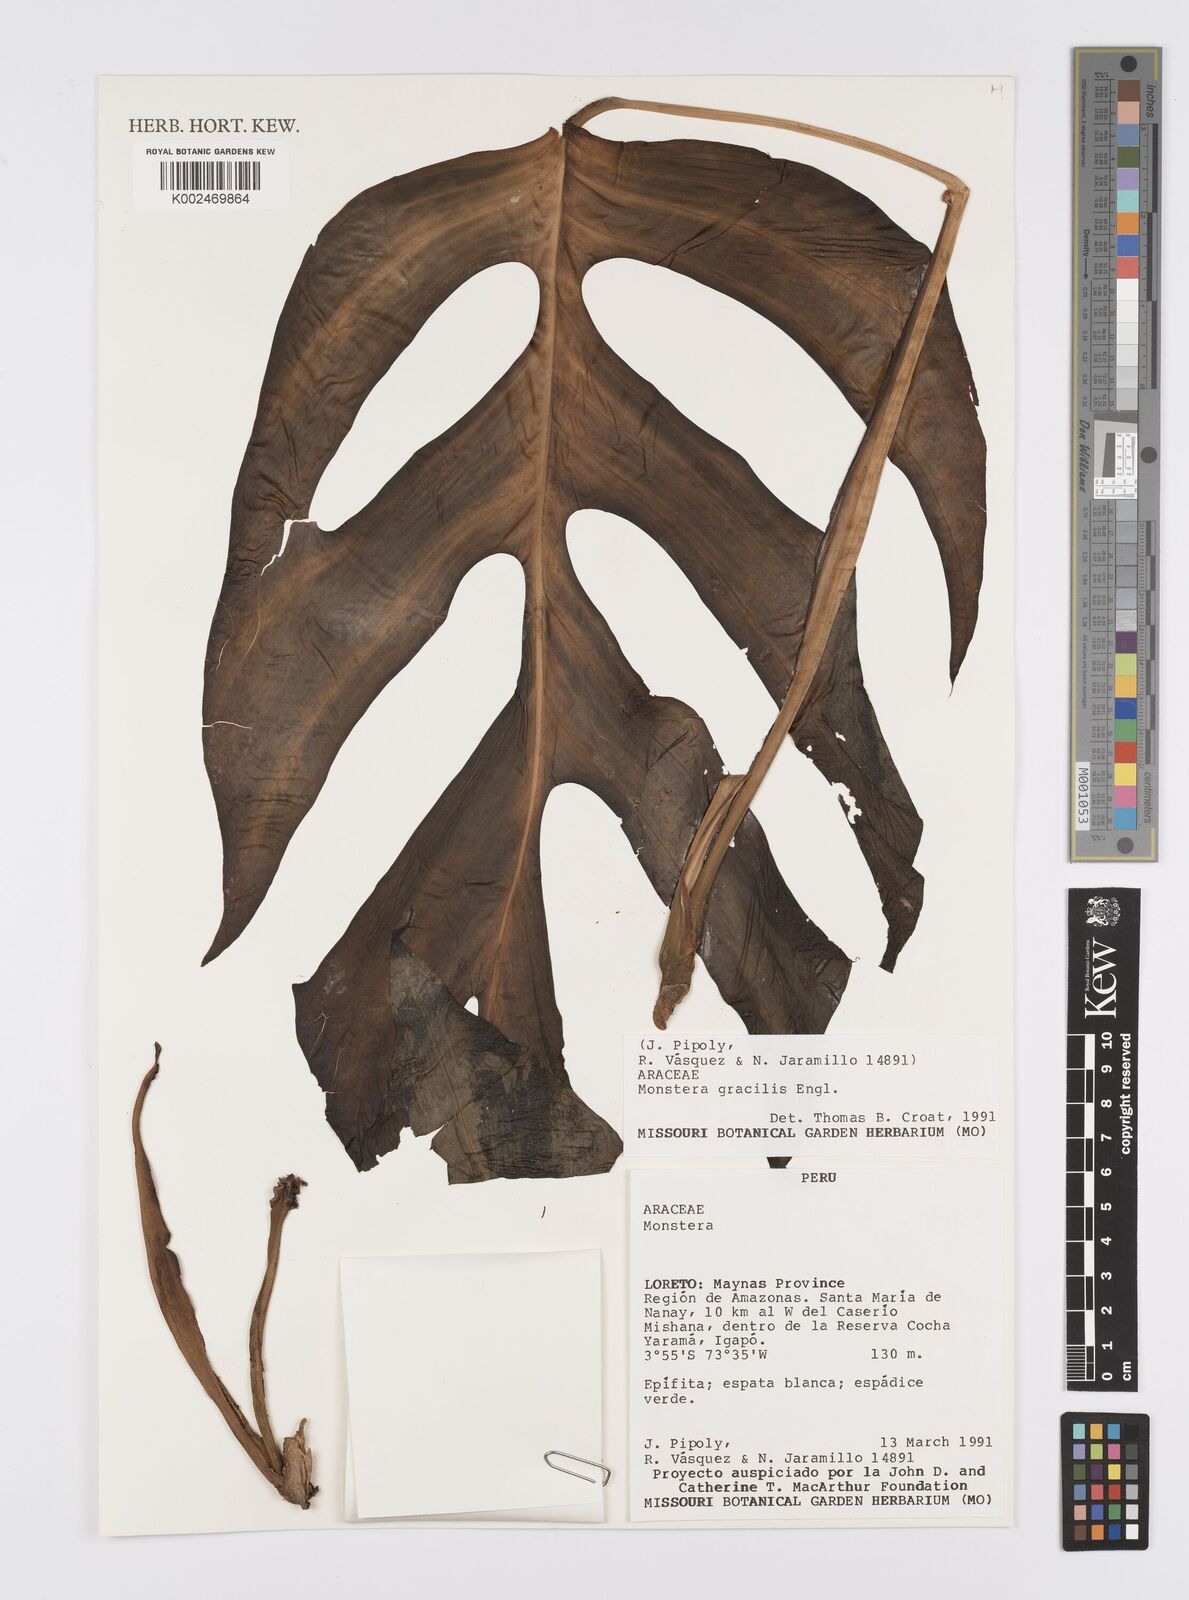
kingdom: Plantae
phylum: Tracheophyta
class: Liliopsida
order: Alismatales
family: Araceae
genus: Monstera
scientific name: Monstera gracilis
